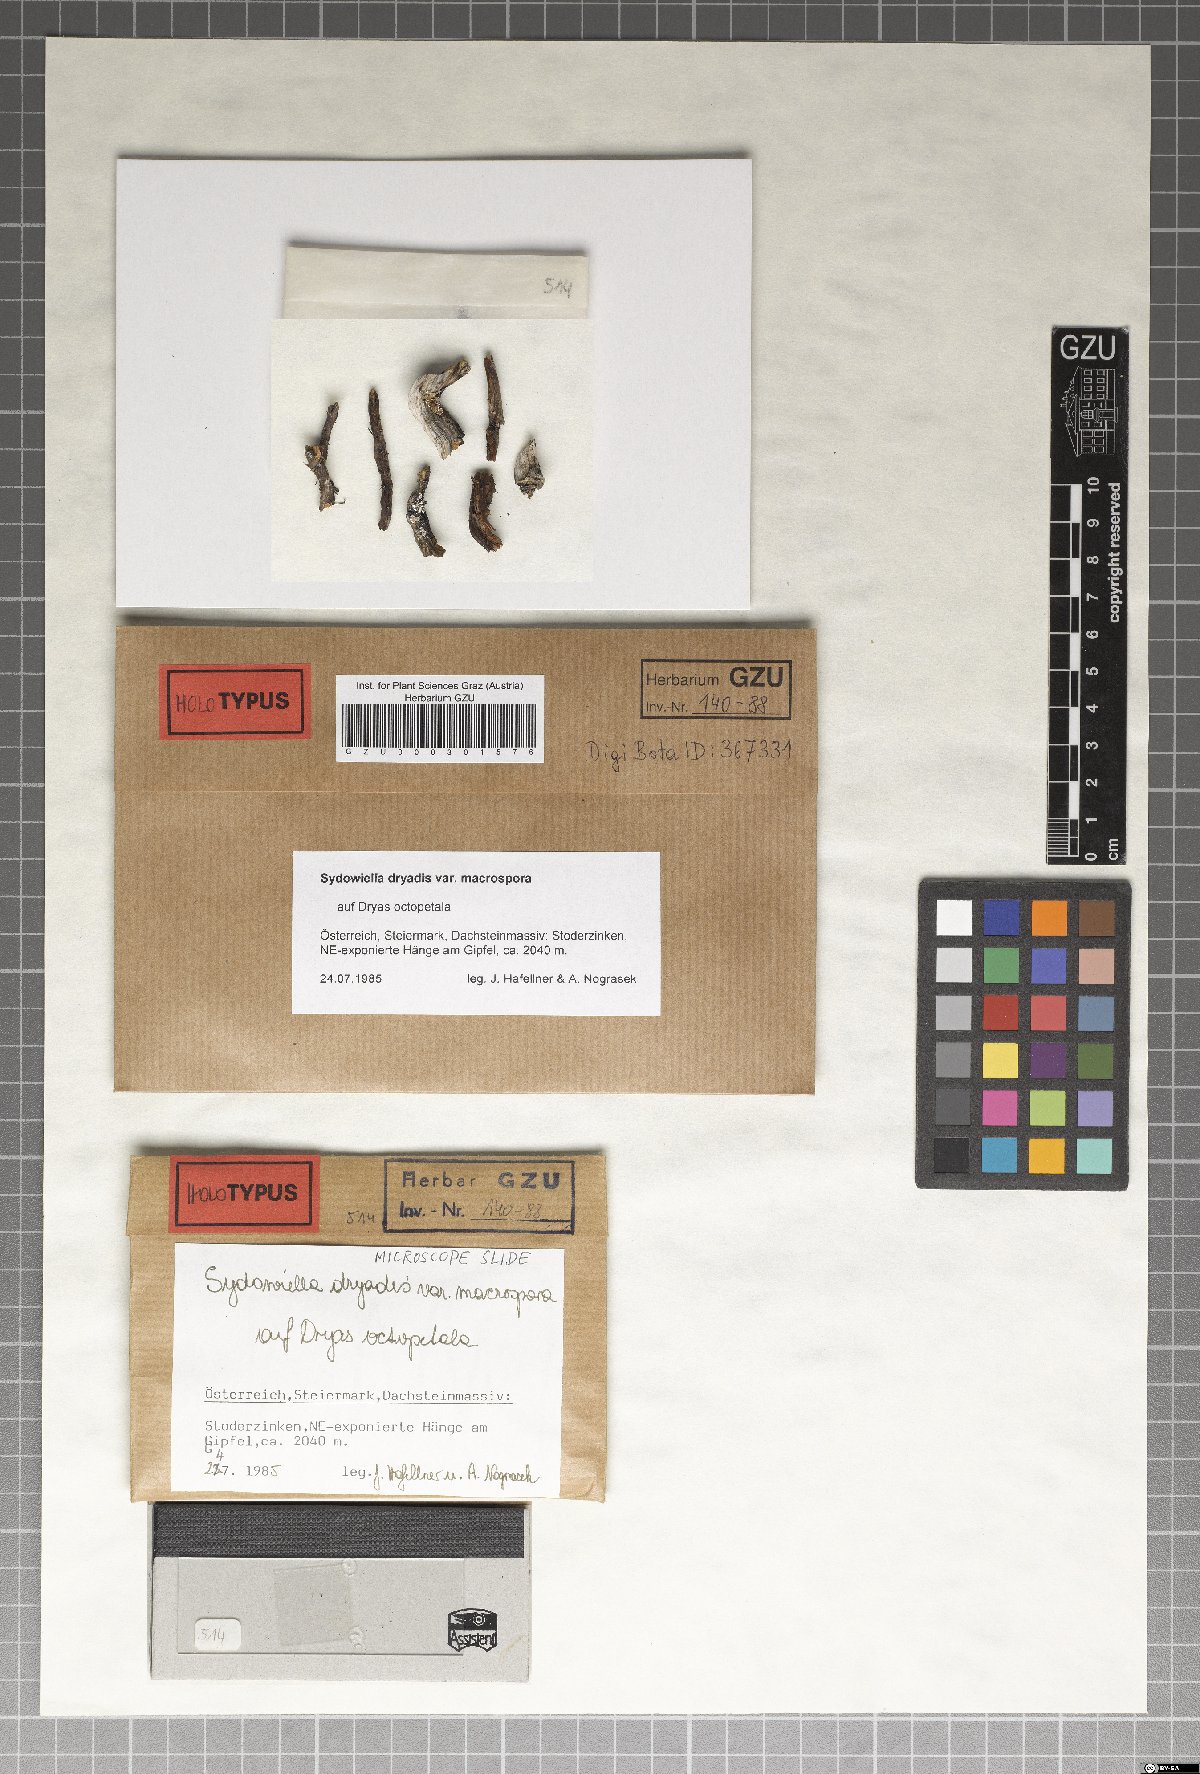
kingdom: Fungi
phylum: Ascomycota
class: Sordariomycetes
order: Chaetosphaeriales
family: Chaetosphaeriaceae
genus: Lentomita
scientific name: Lentomita dryadis
